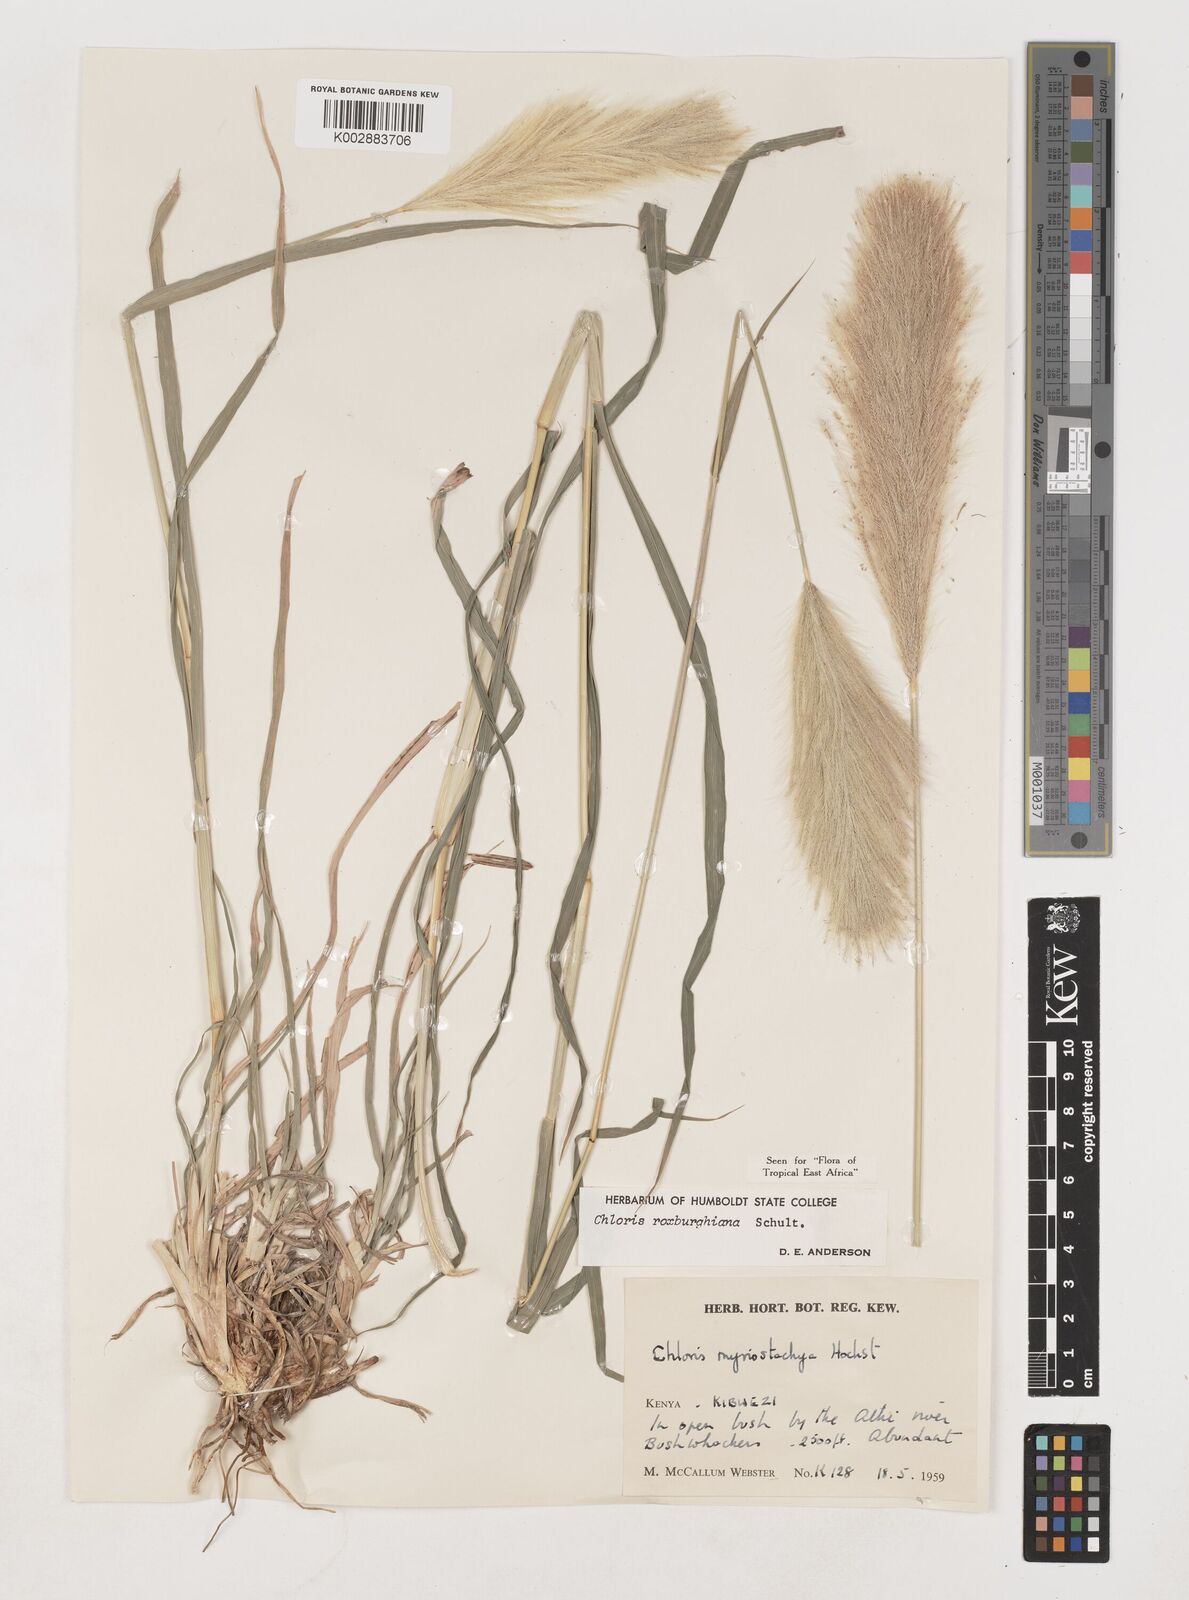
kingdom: Plantae
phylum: Tracheophyta
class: Liliopsida
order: Poales
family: Poaceae
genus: Tetrapogon
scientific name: Tetrapogon roxburghiana
